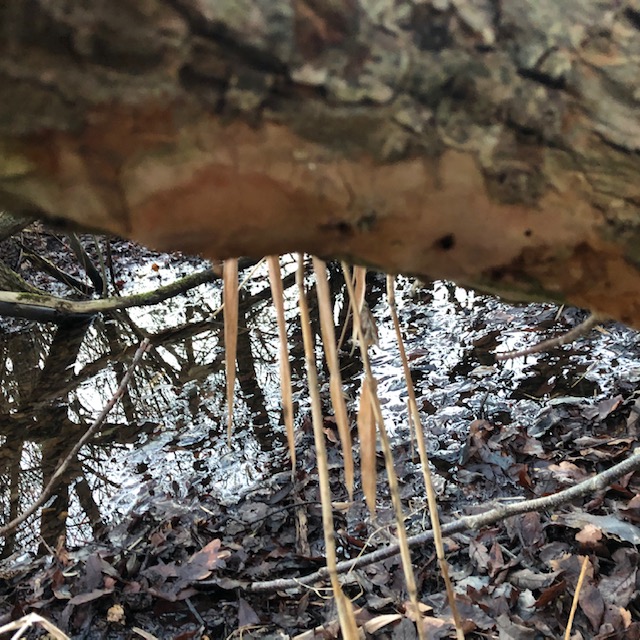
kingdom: Fungi
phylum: Basidiomycota
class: Agaricomycetes
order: Hymenochaetales
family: Hymenochaetaceae
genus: Fomitiporia
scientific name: Fomitiporia punctata
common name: pude-ildporesvamp
